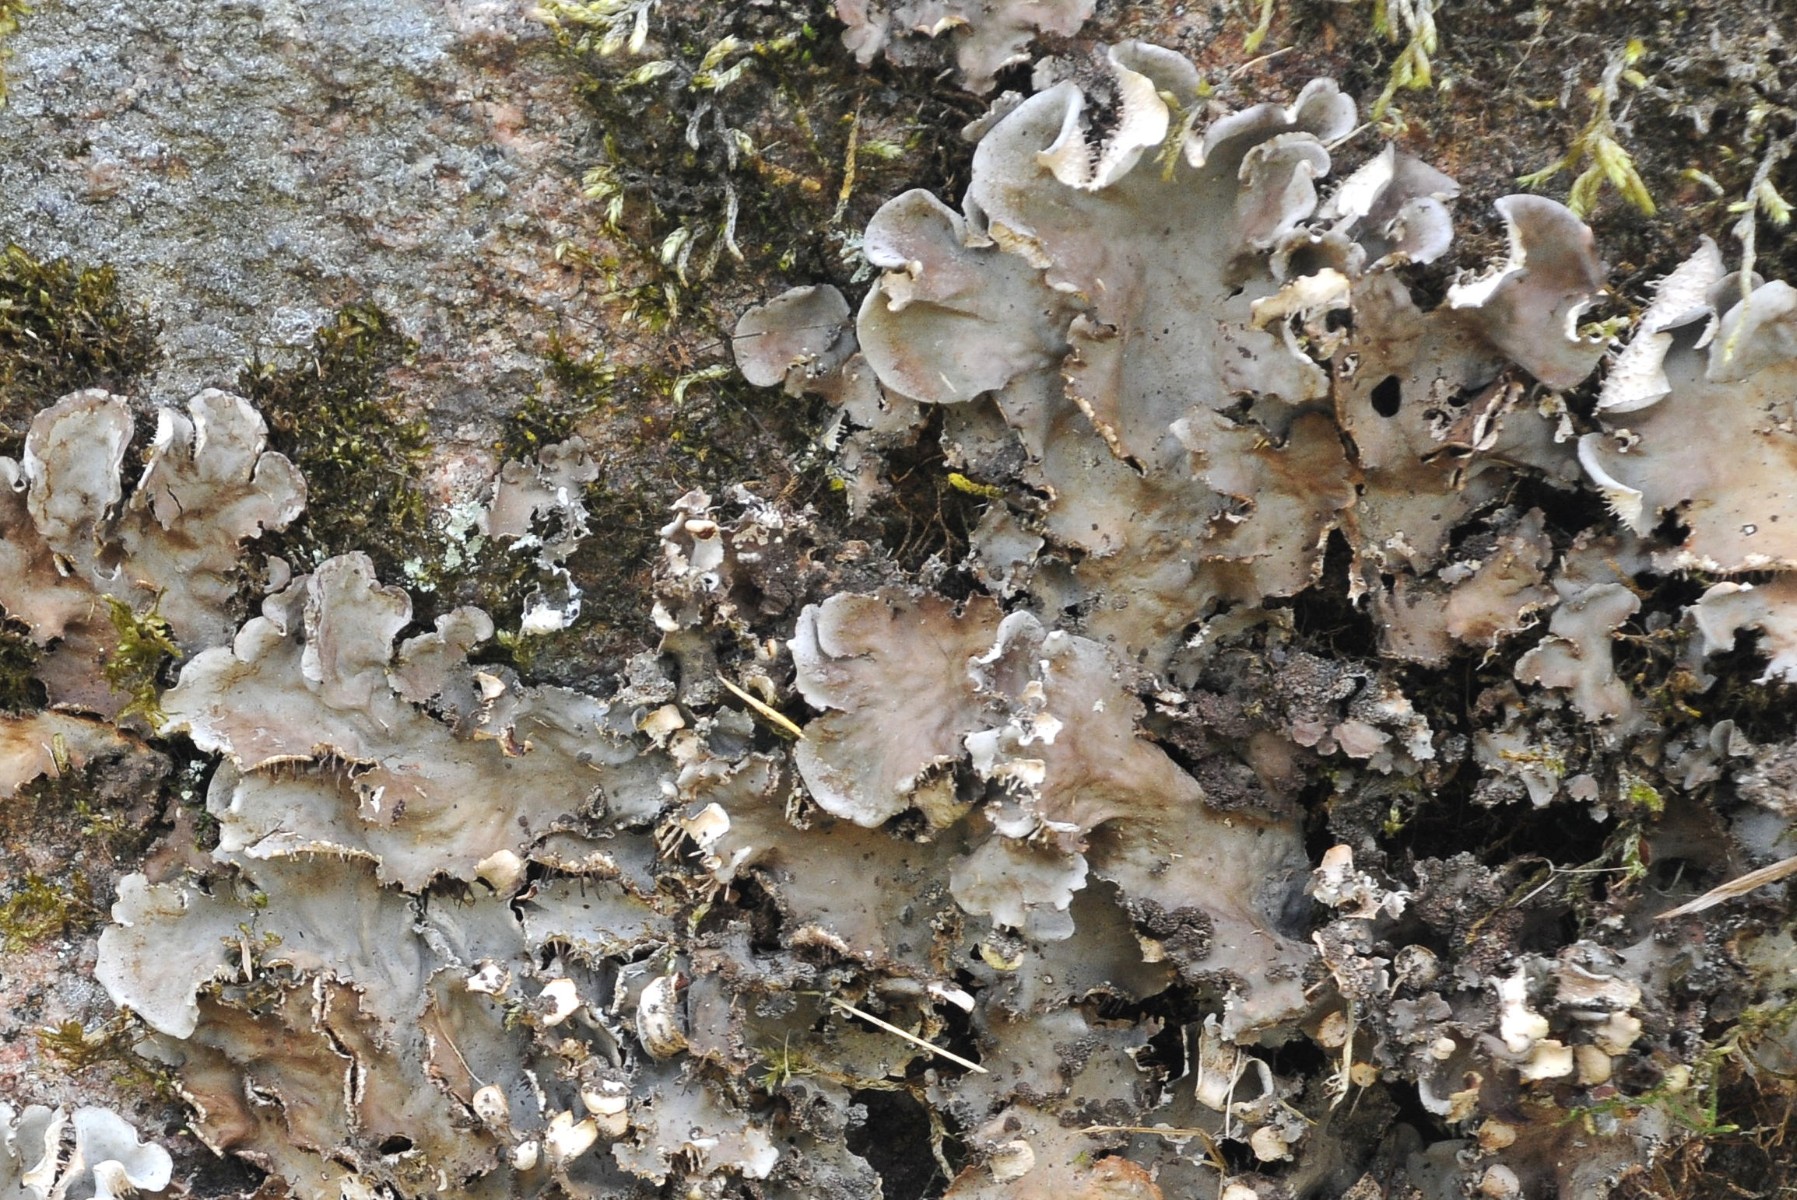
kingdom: Fungi
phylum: Ascomycota
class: Lecanoromycetes
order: Peltigerales
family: Peltigeraceae
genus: Peltigera
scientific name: Peltigera praetextata
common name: kruset skjoldlav
